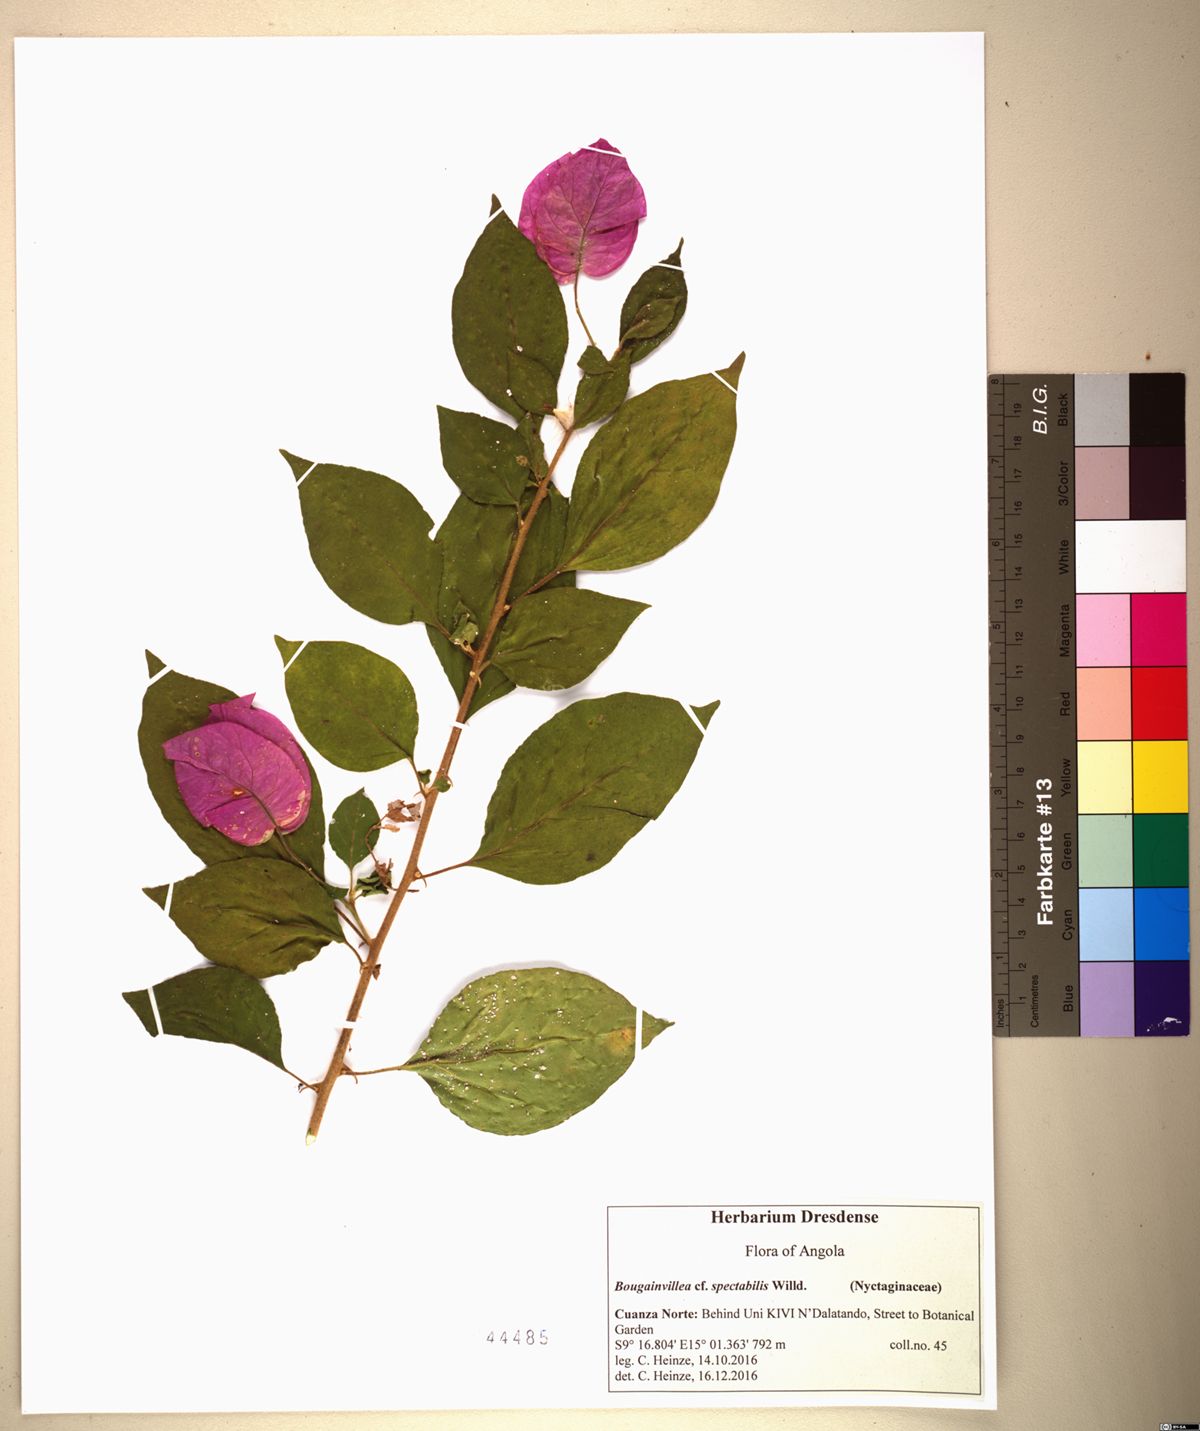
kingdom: Plantae
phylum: Tracheophyta
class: Magnoliopsida
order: Caryophyllales
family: Nyctaginaceae
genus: Bougainvillea
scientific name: Bougainvillea spectabilis
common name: Great bougainvillea
